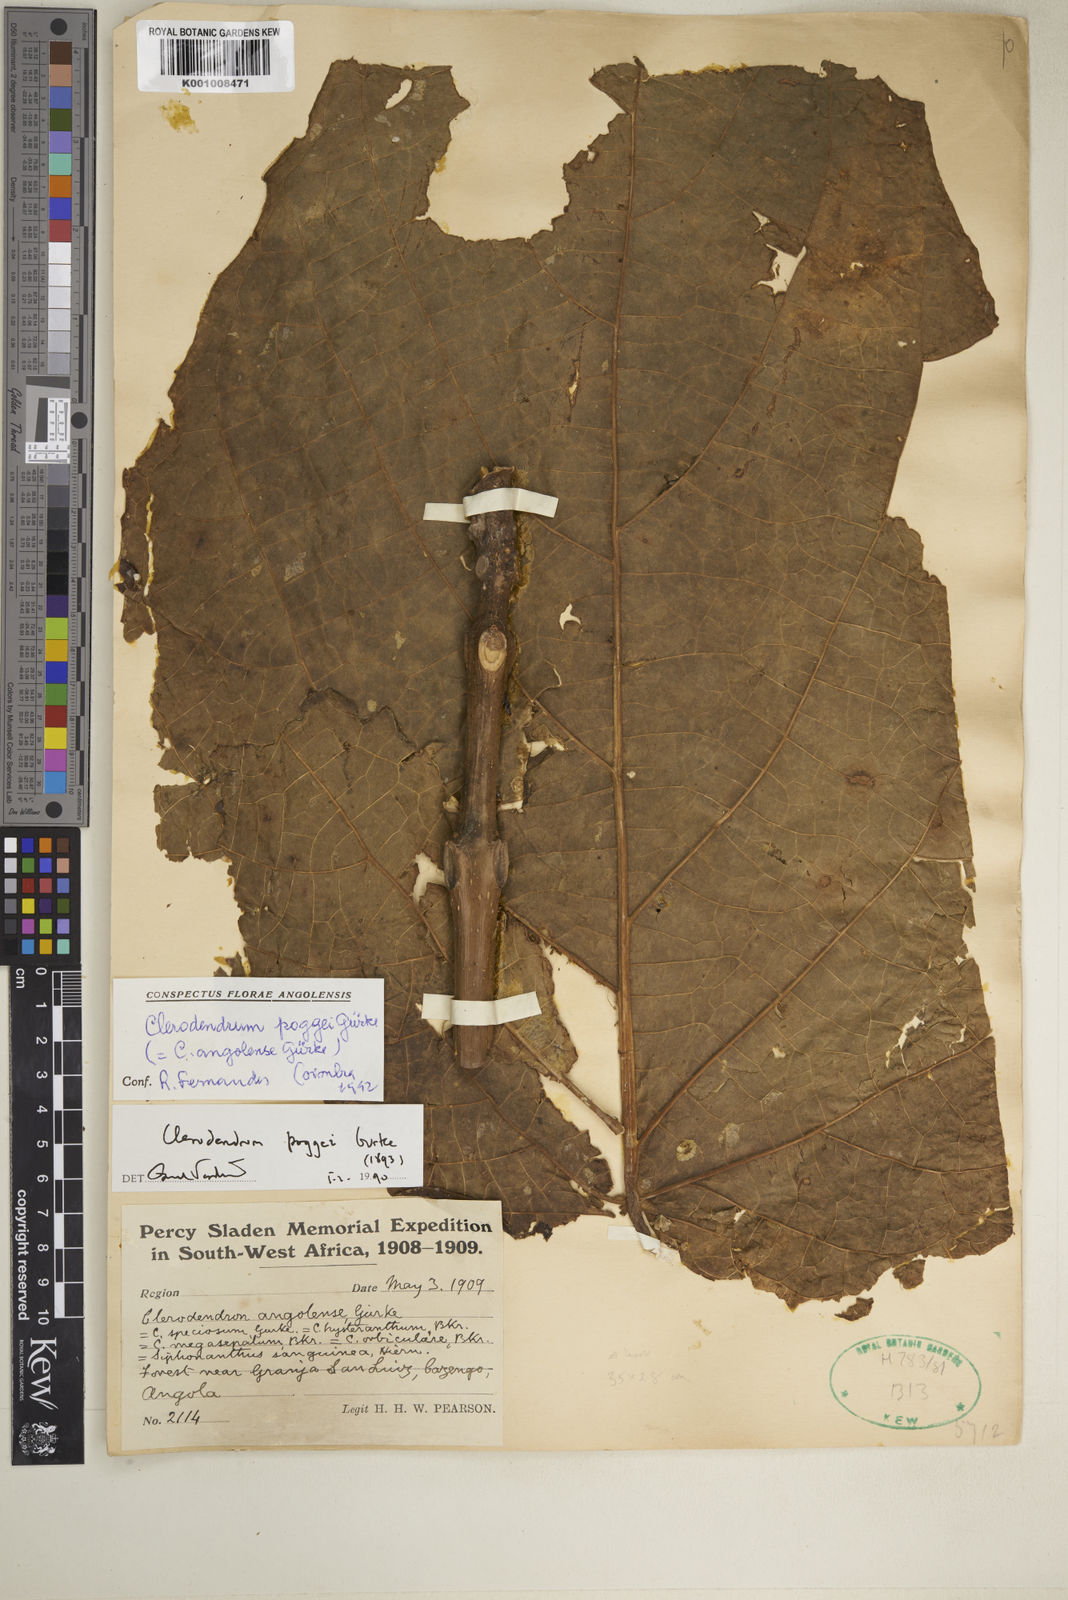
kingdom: Plantae
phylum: Tracheophyta
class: Magnoliopsida
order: Lamiales
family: Lamiaceae
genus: Clerodendrum
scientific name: Clerodendrum
